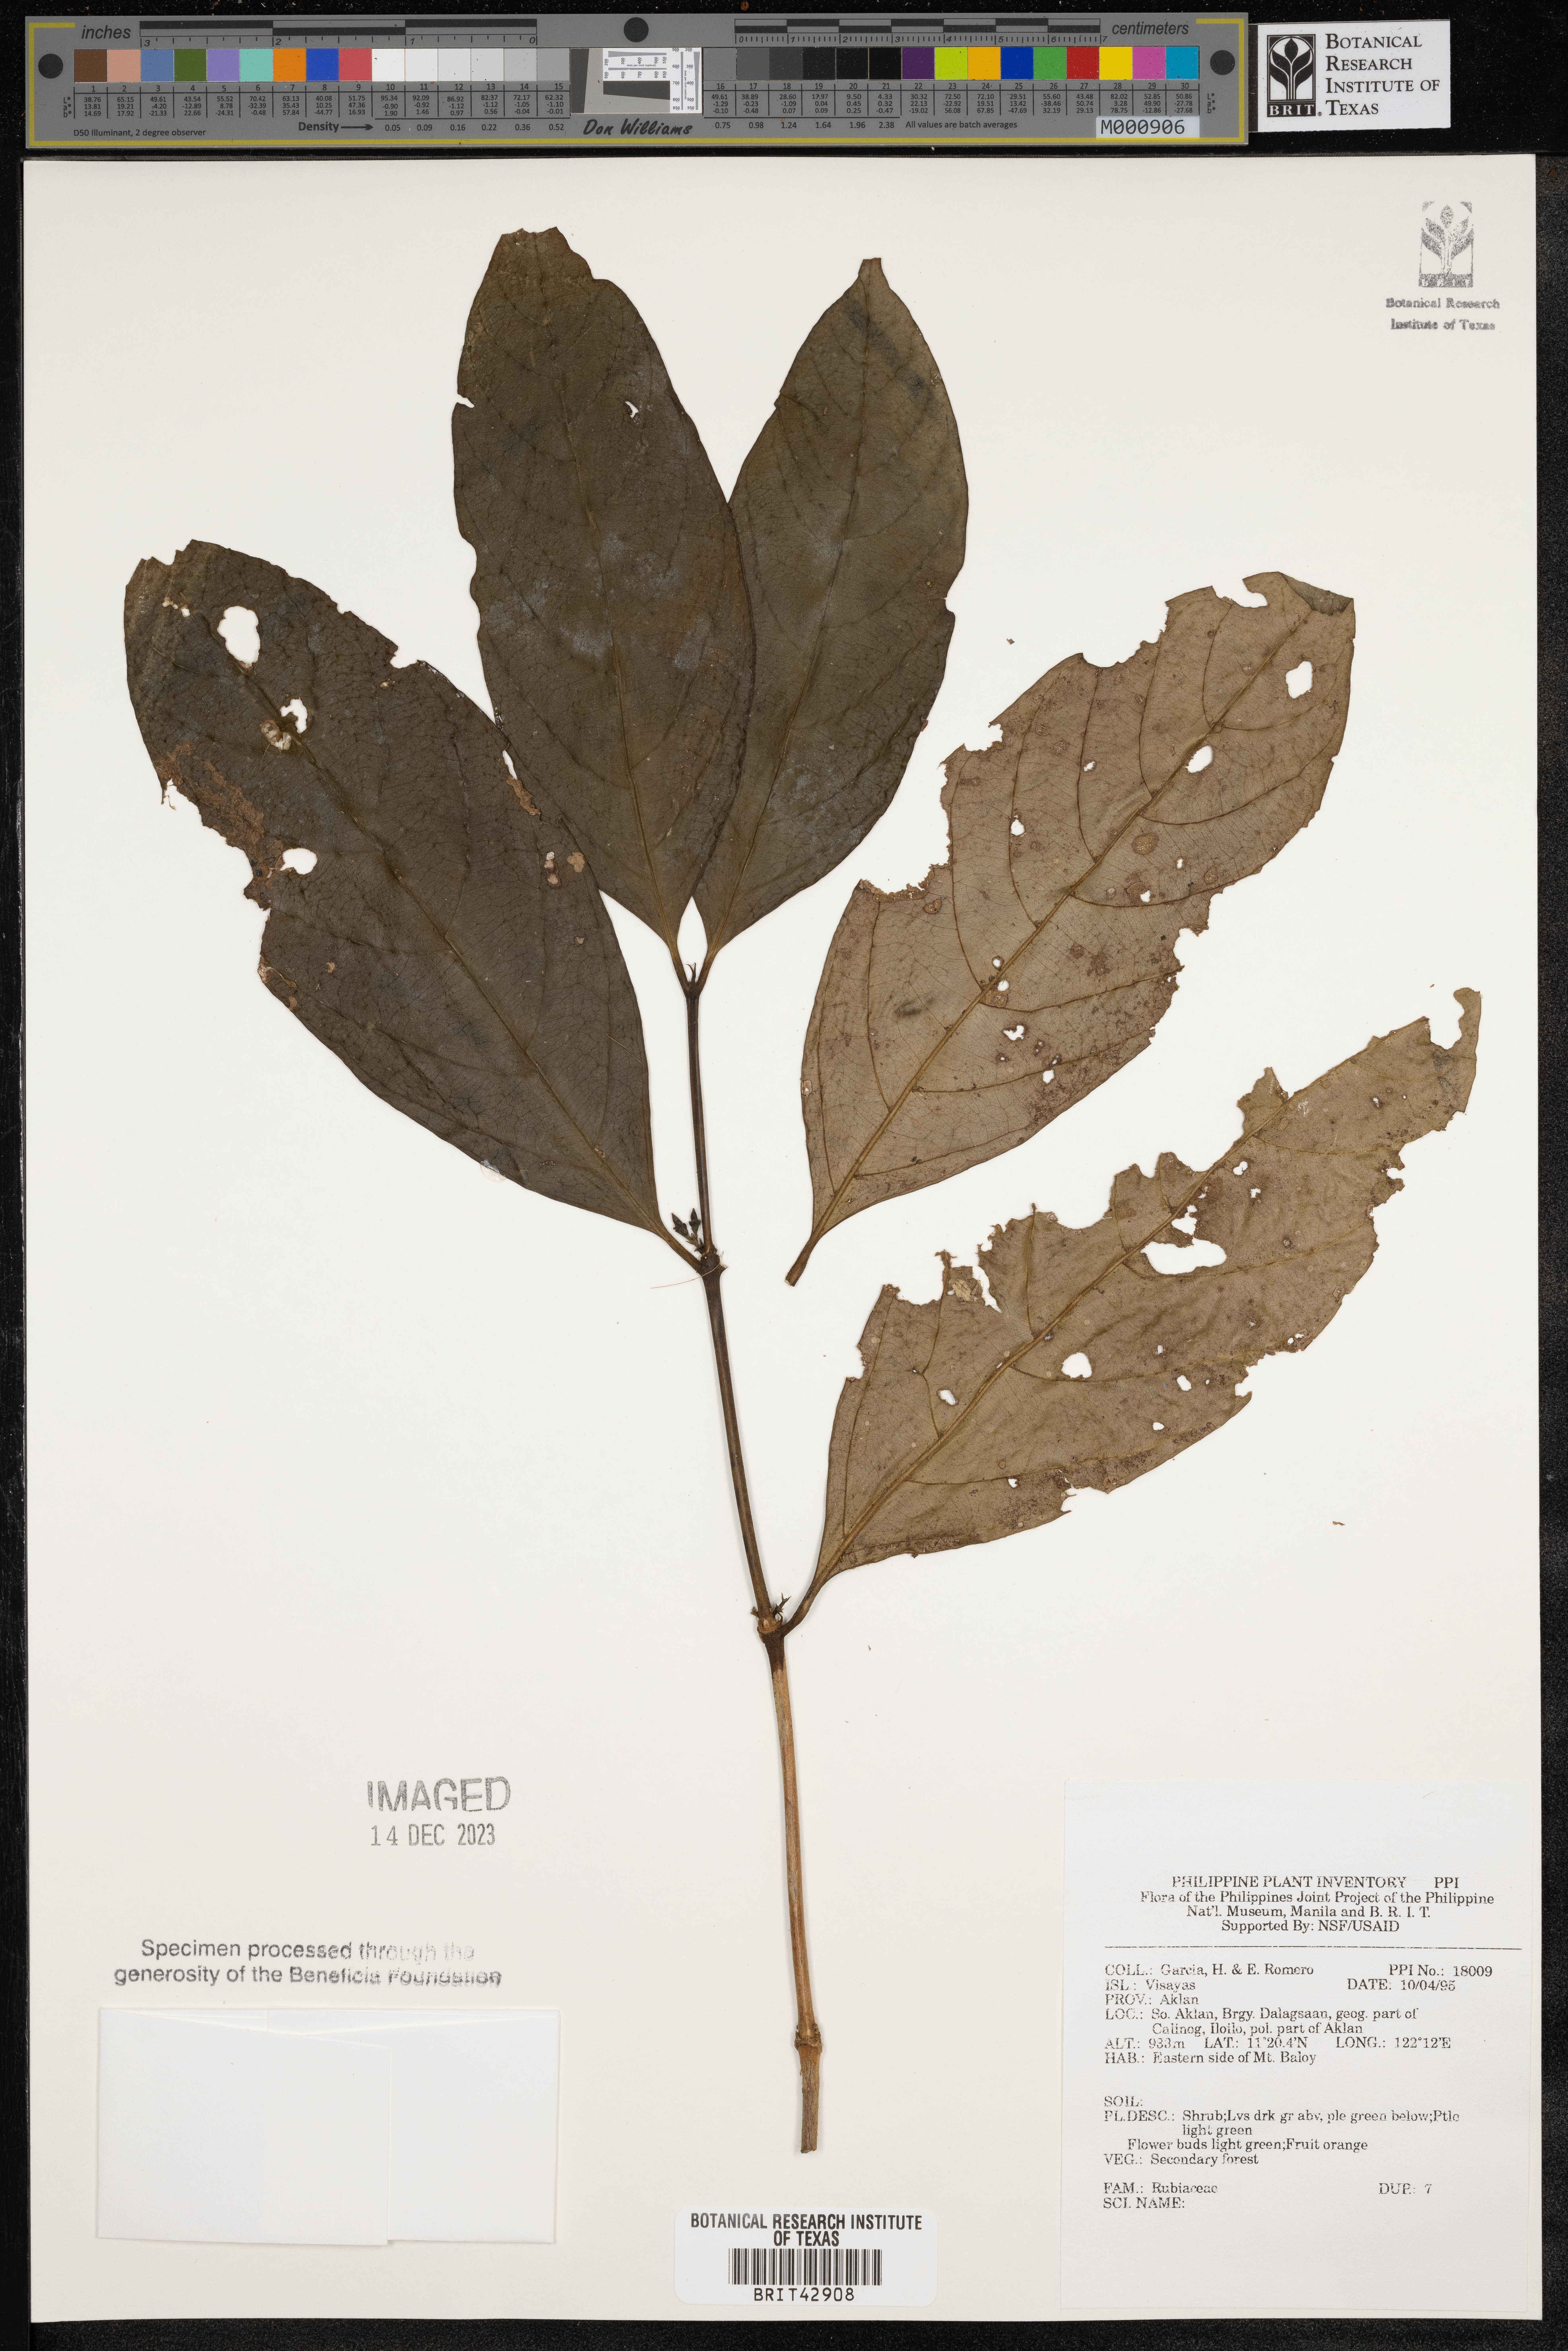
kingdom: Plantae
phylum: Tracheophyta
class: Magnoliopsida
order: Gentianales
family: Rubiaceae
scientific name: Rubiaceae
